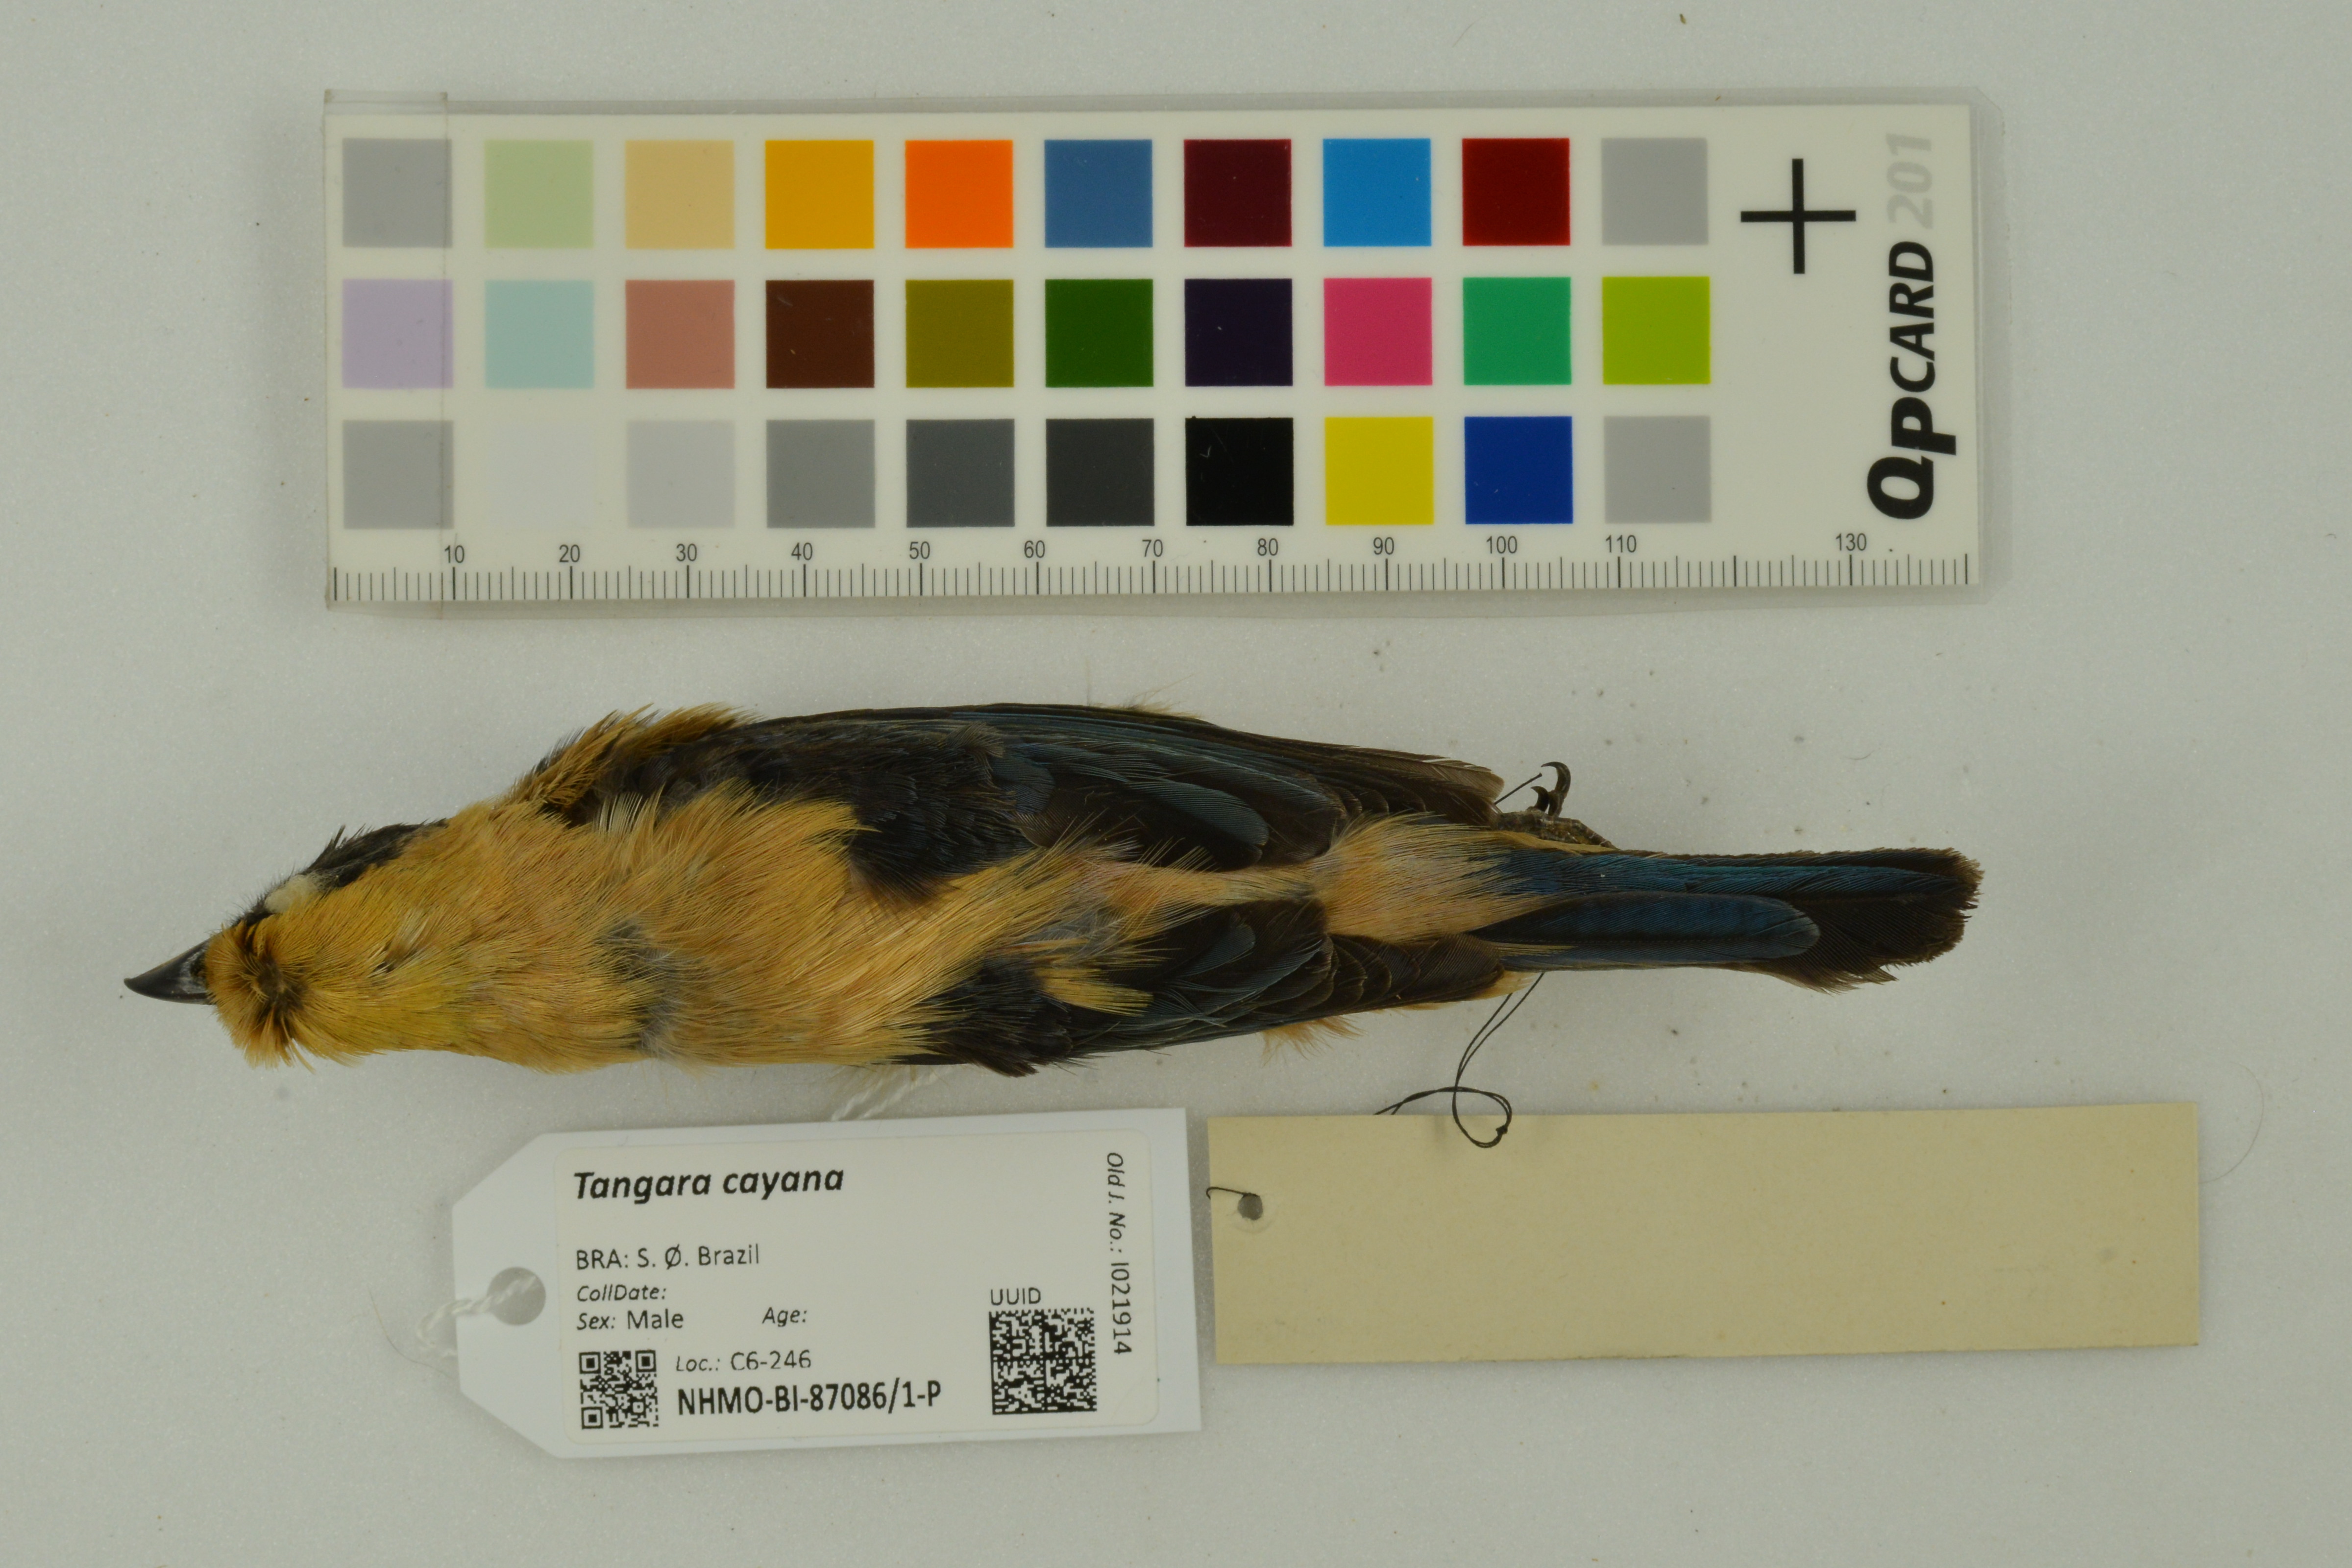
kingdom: Animalia
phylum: Chordata
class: Aves
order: Passeriformes
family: Thraupidae
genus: Stilpnia
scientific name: Stilpnia cayana
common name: Burnished-buff tanager
